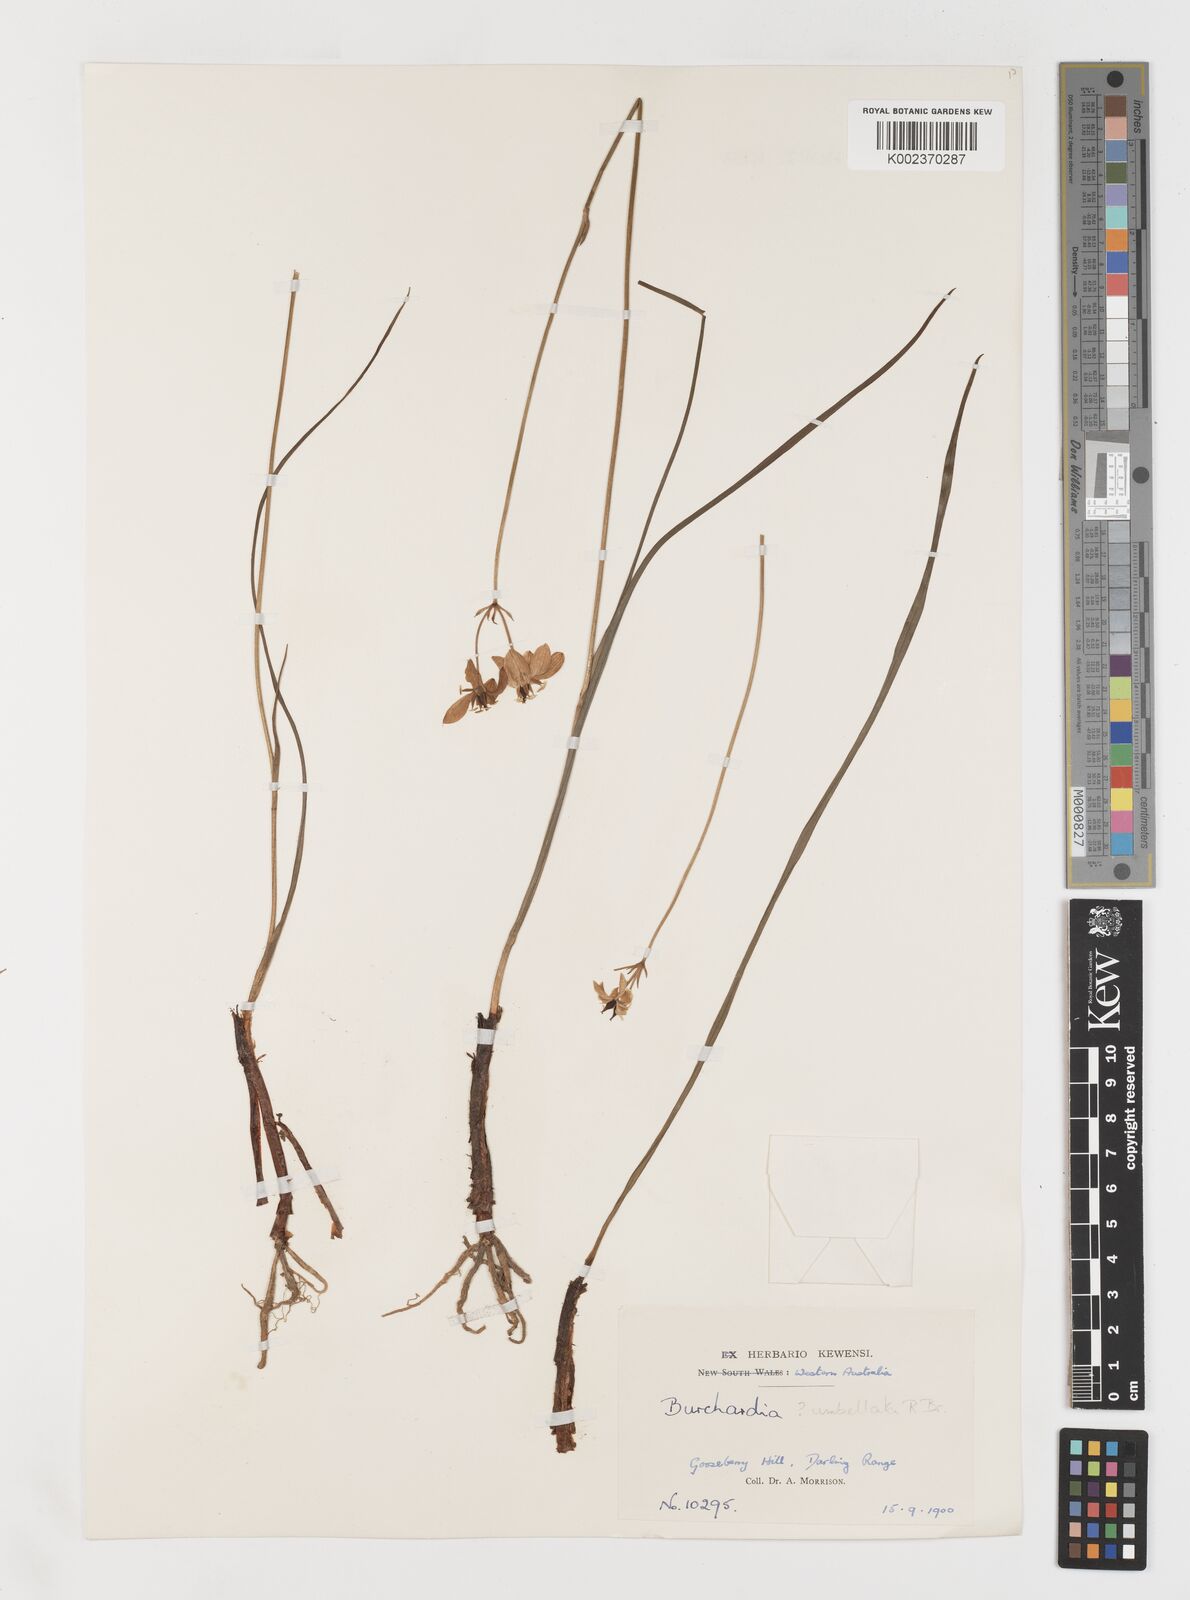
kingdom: Plantae
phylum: Tracheophyta
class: Liliopsida
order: Liliales
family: Colchicaceae
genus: Burchardia
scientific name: Burchardia umbellata
